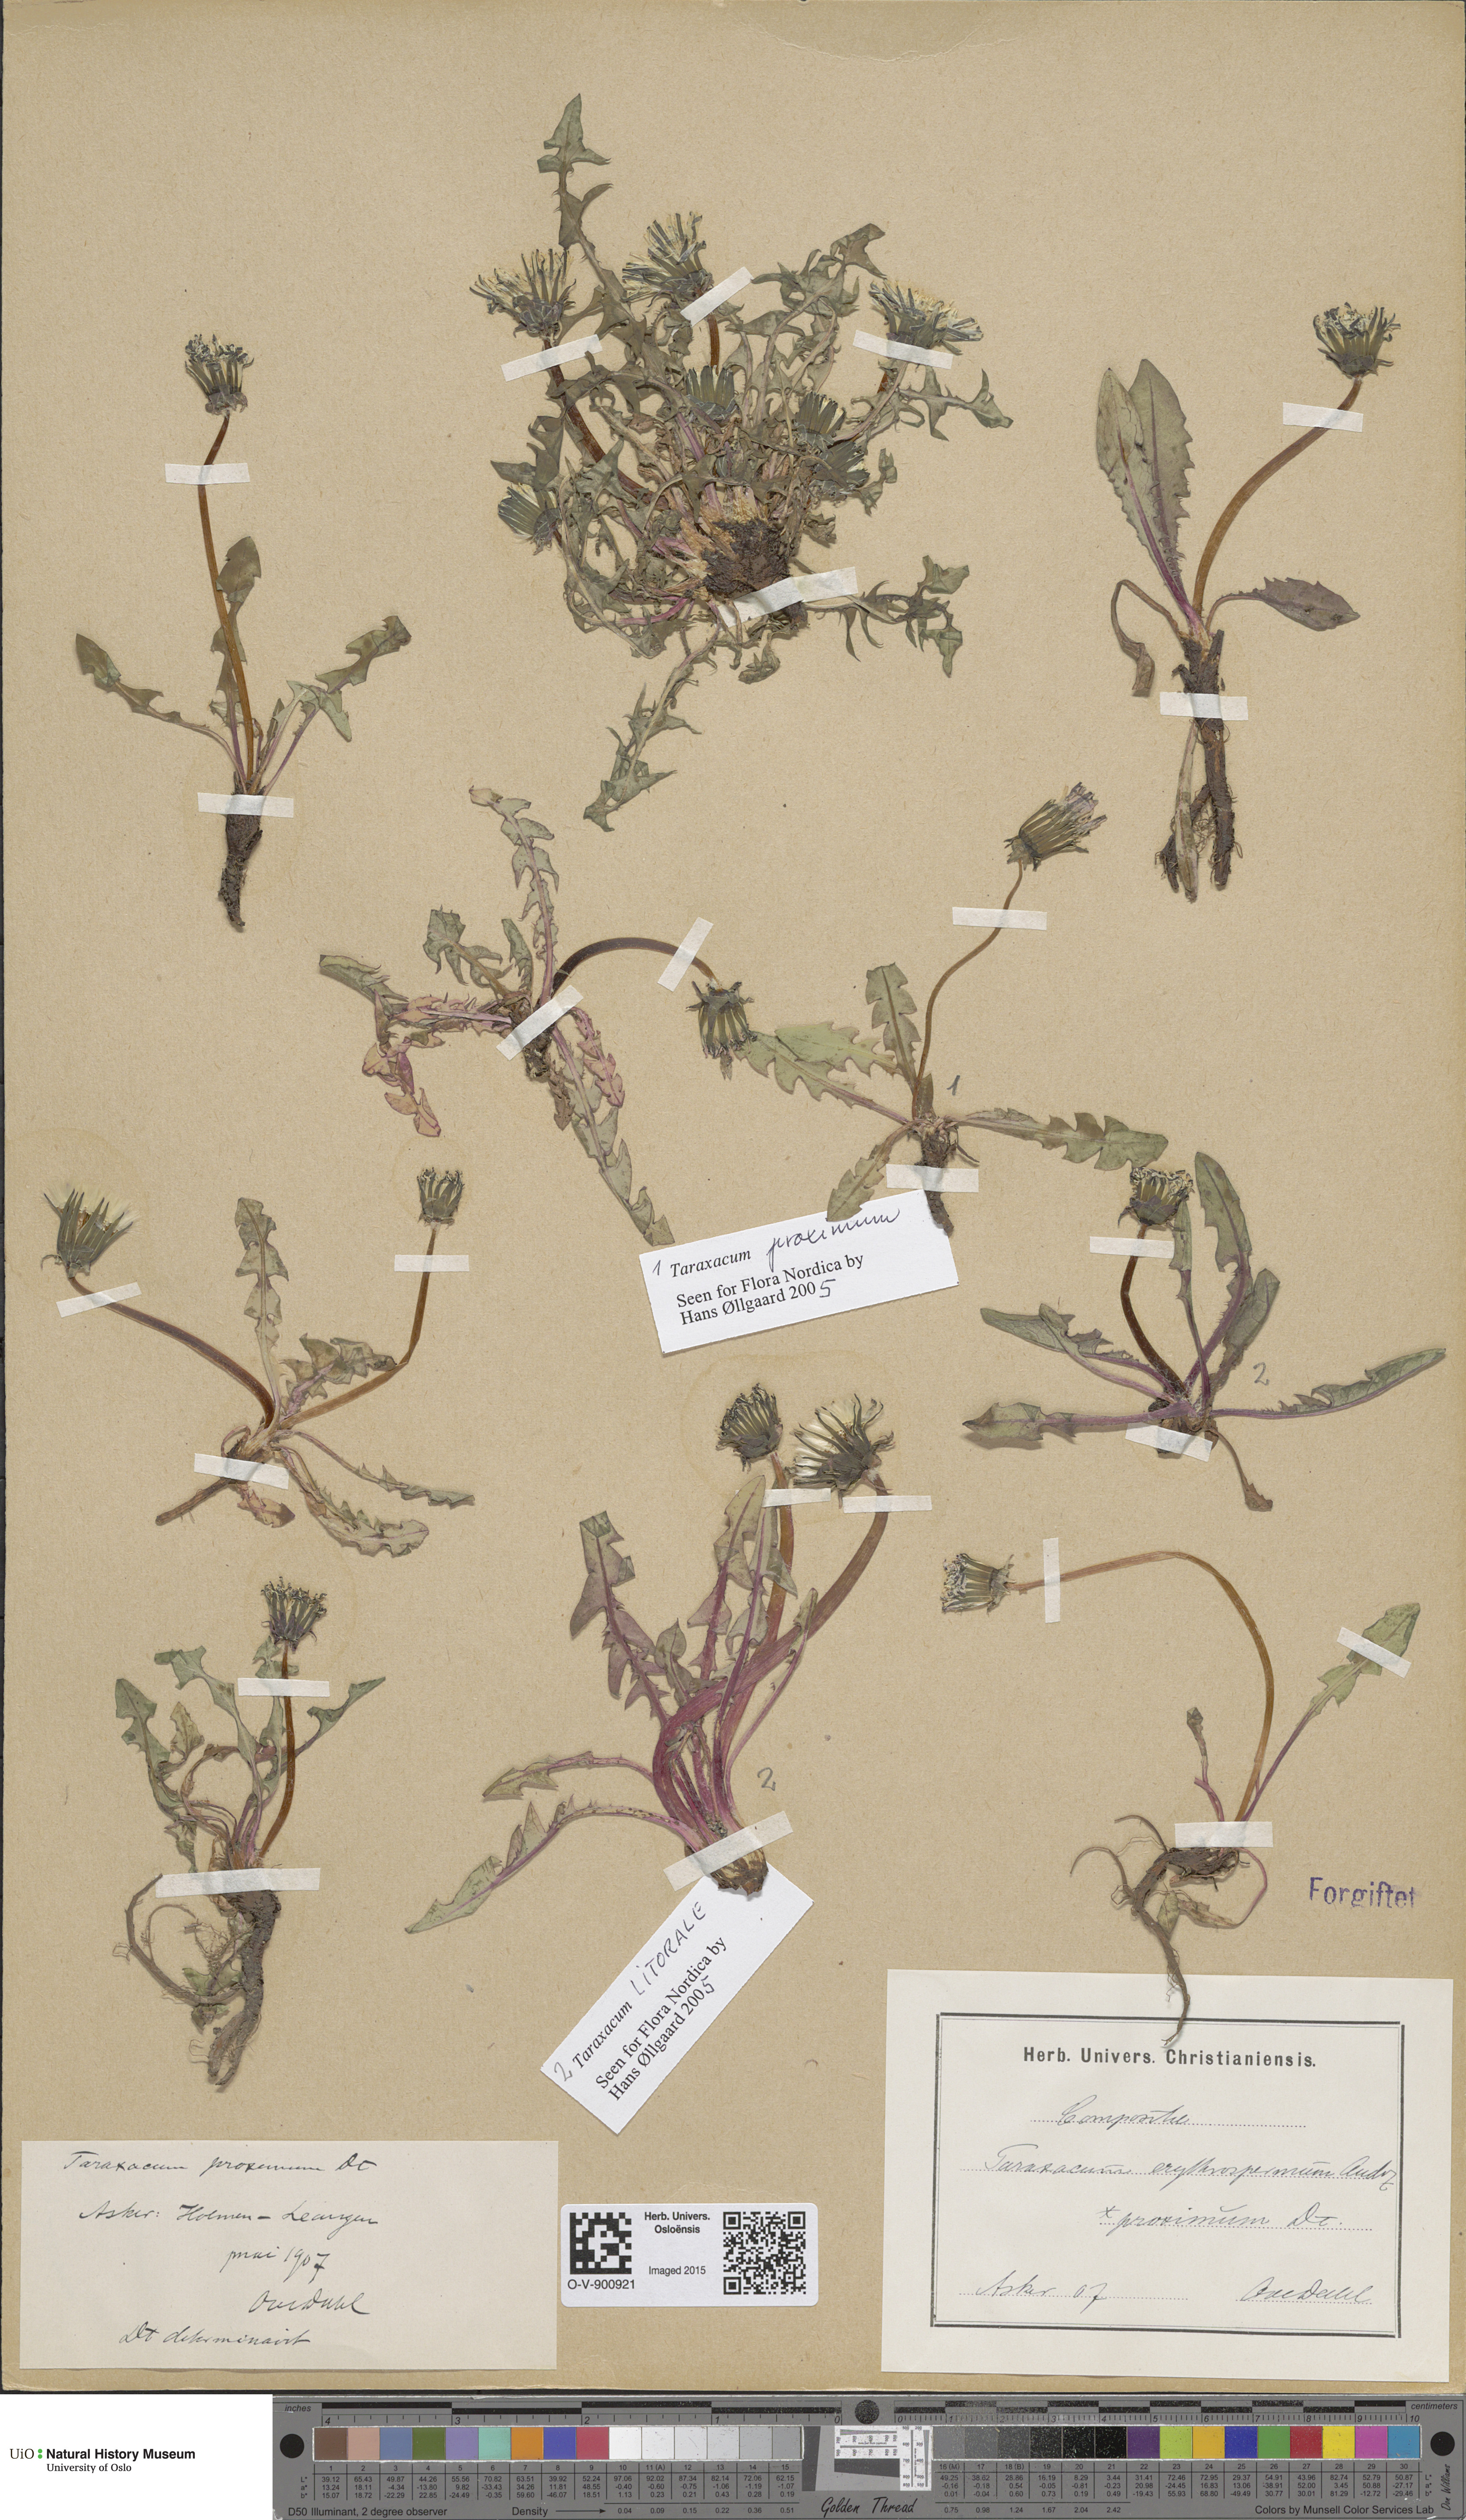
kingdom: Plantae
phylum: Tracheophyta
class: Magnoliopsida
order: Asterales
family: Asteraceae
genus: Taraxacum
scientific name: Taraxacum proximum
